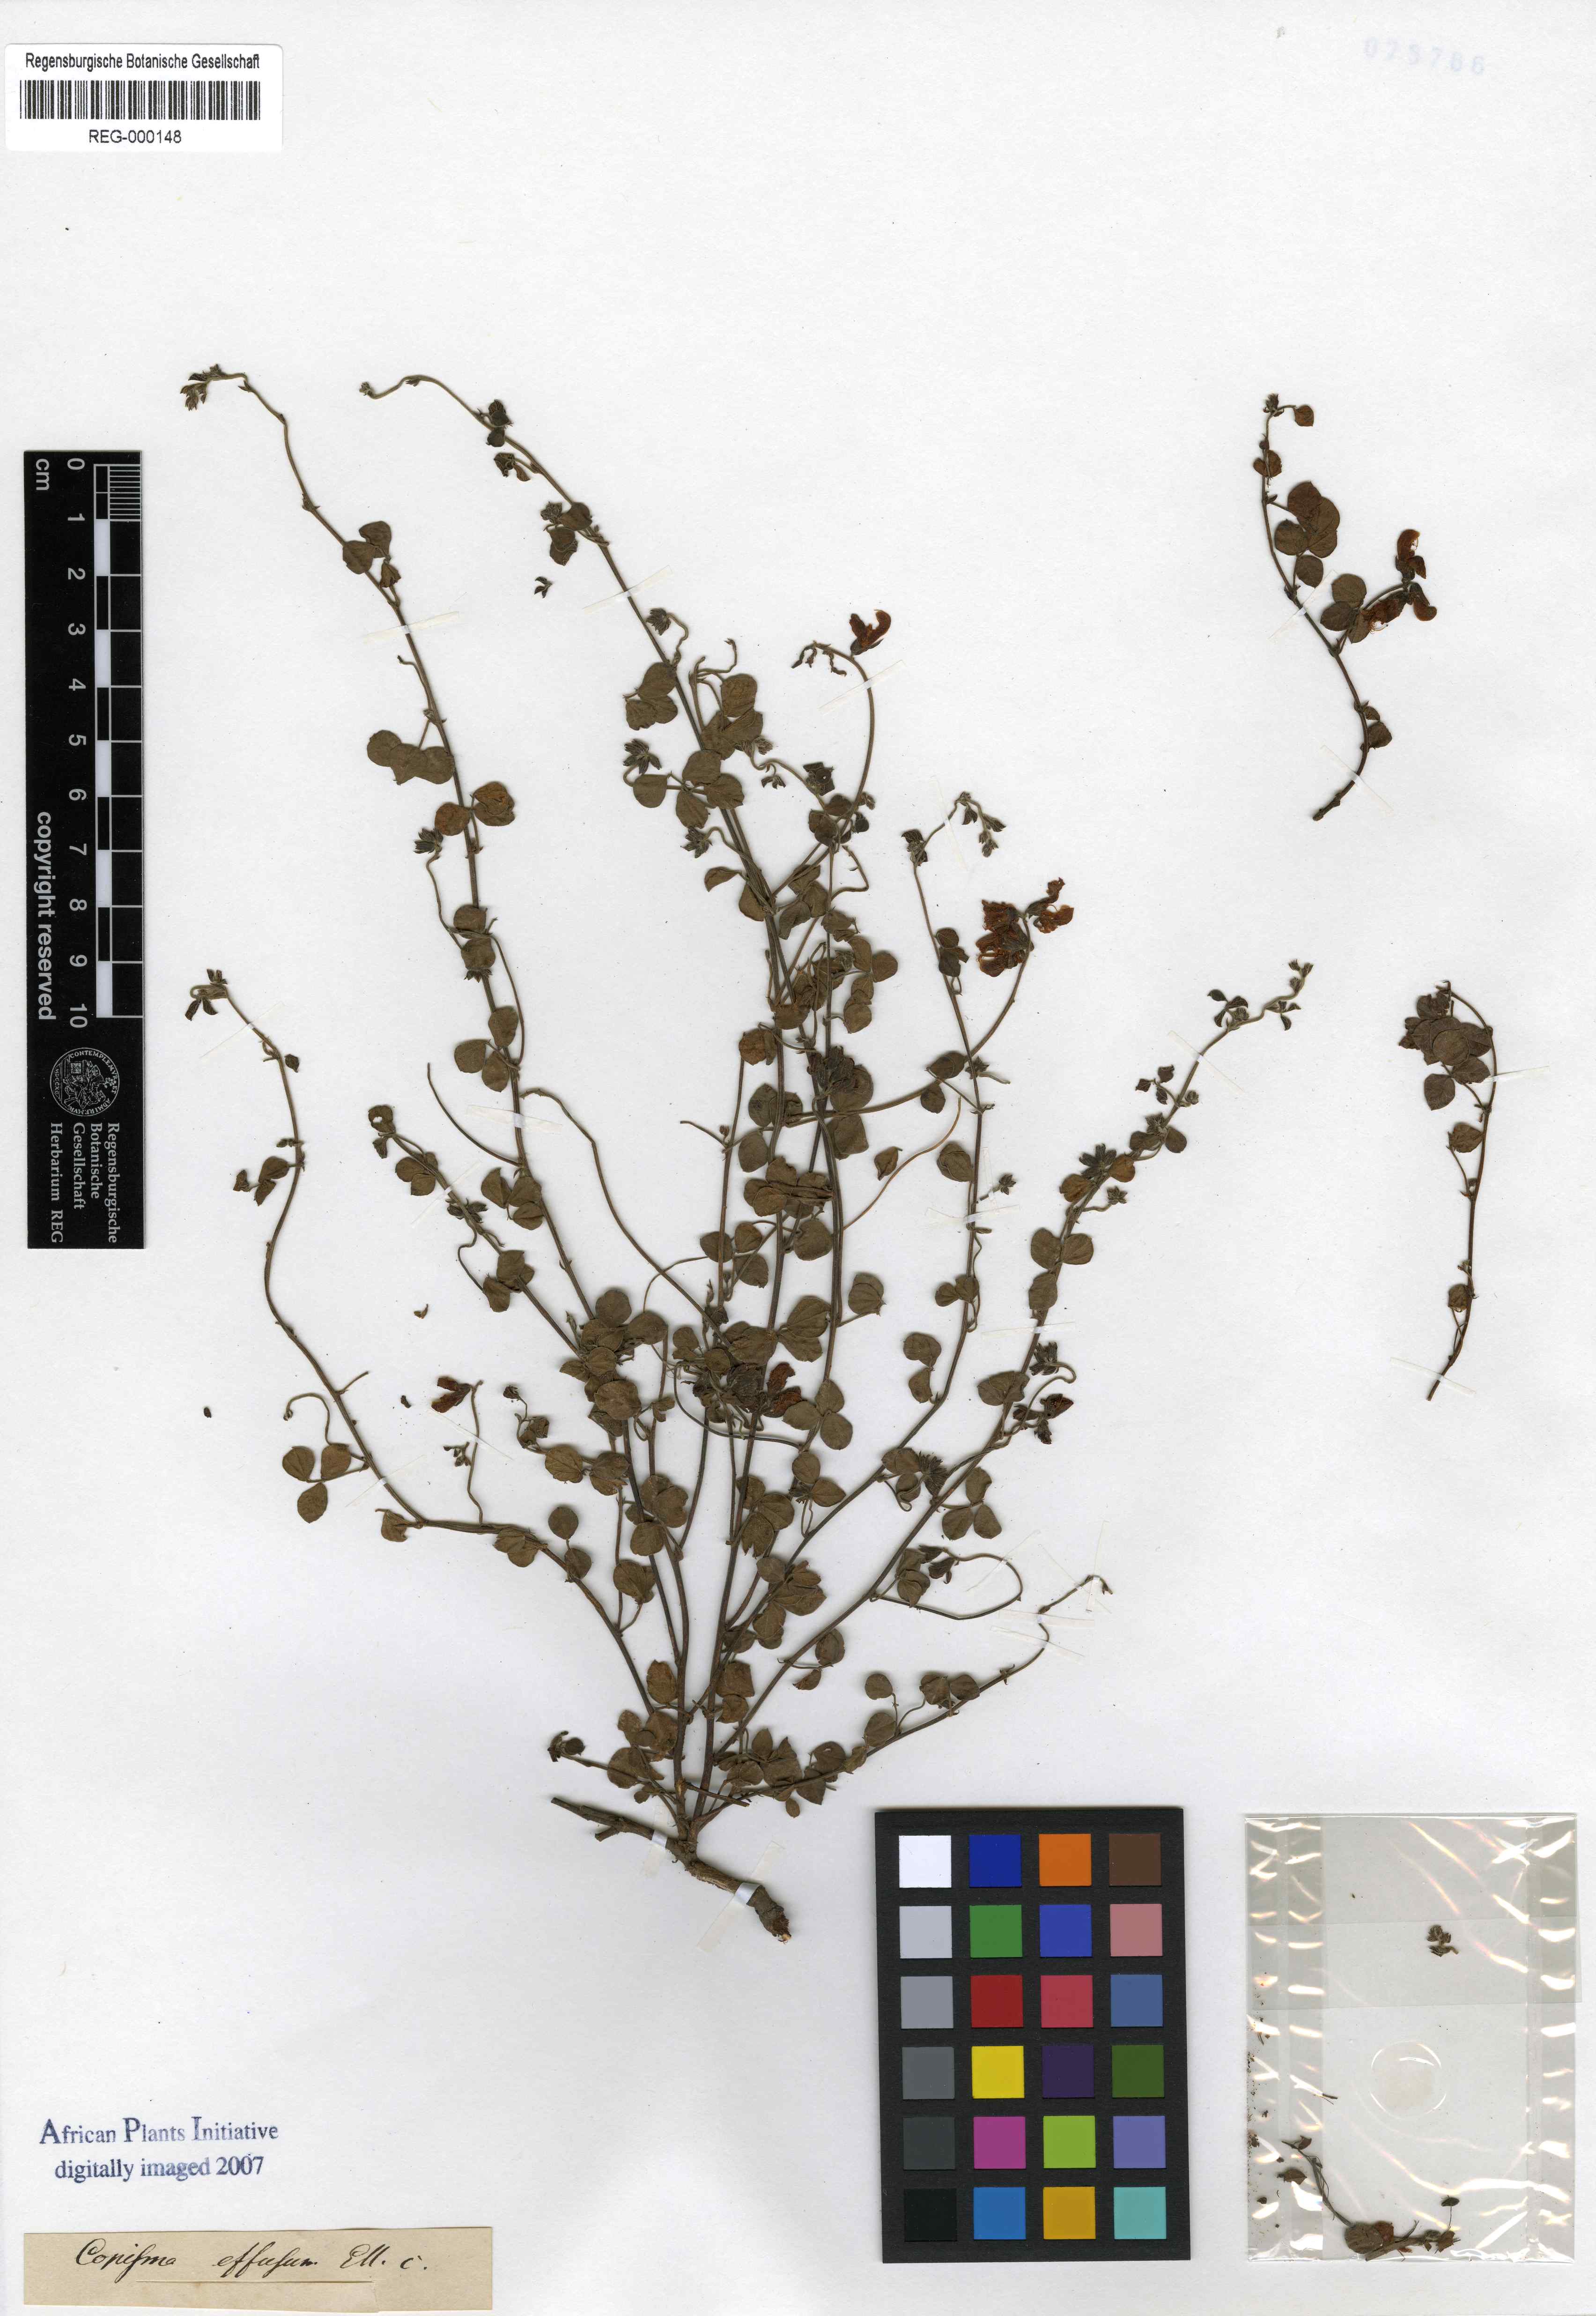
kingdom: Plantae
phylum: Tracheophyta
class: Magnoliopsida
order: Fabales
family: Fabaceae
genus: Rhynchosia
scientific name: Rhynchosia adenodes
